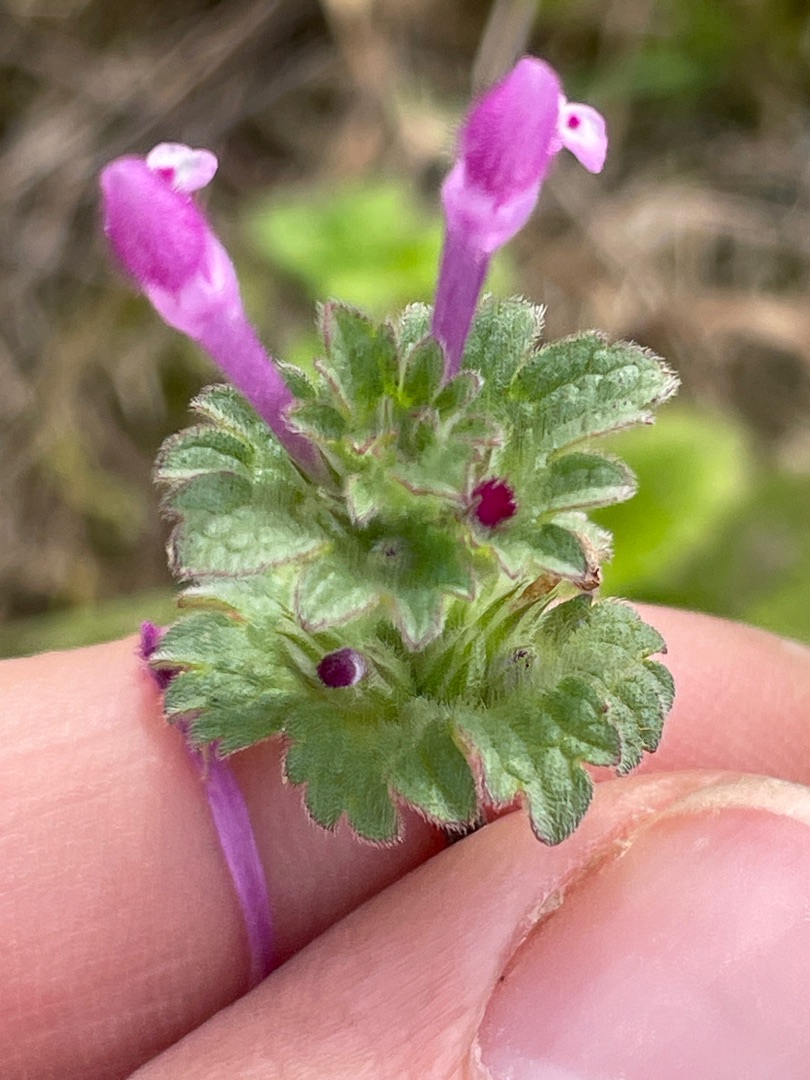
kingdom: Plantae
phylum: Tracheophyta
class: Magnoliopsida
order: Lamiales
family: Lamiaceae
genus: Lamium
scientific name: Lamium amplexicaule
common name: Liden tvetand
